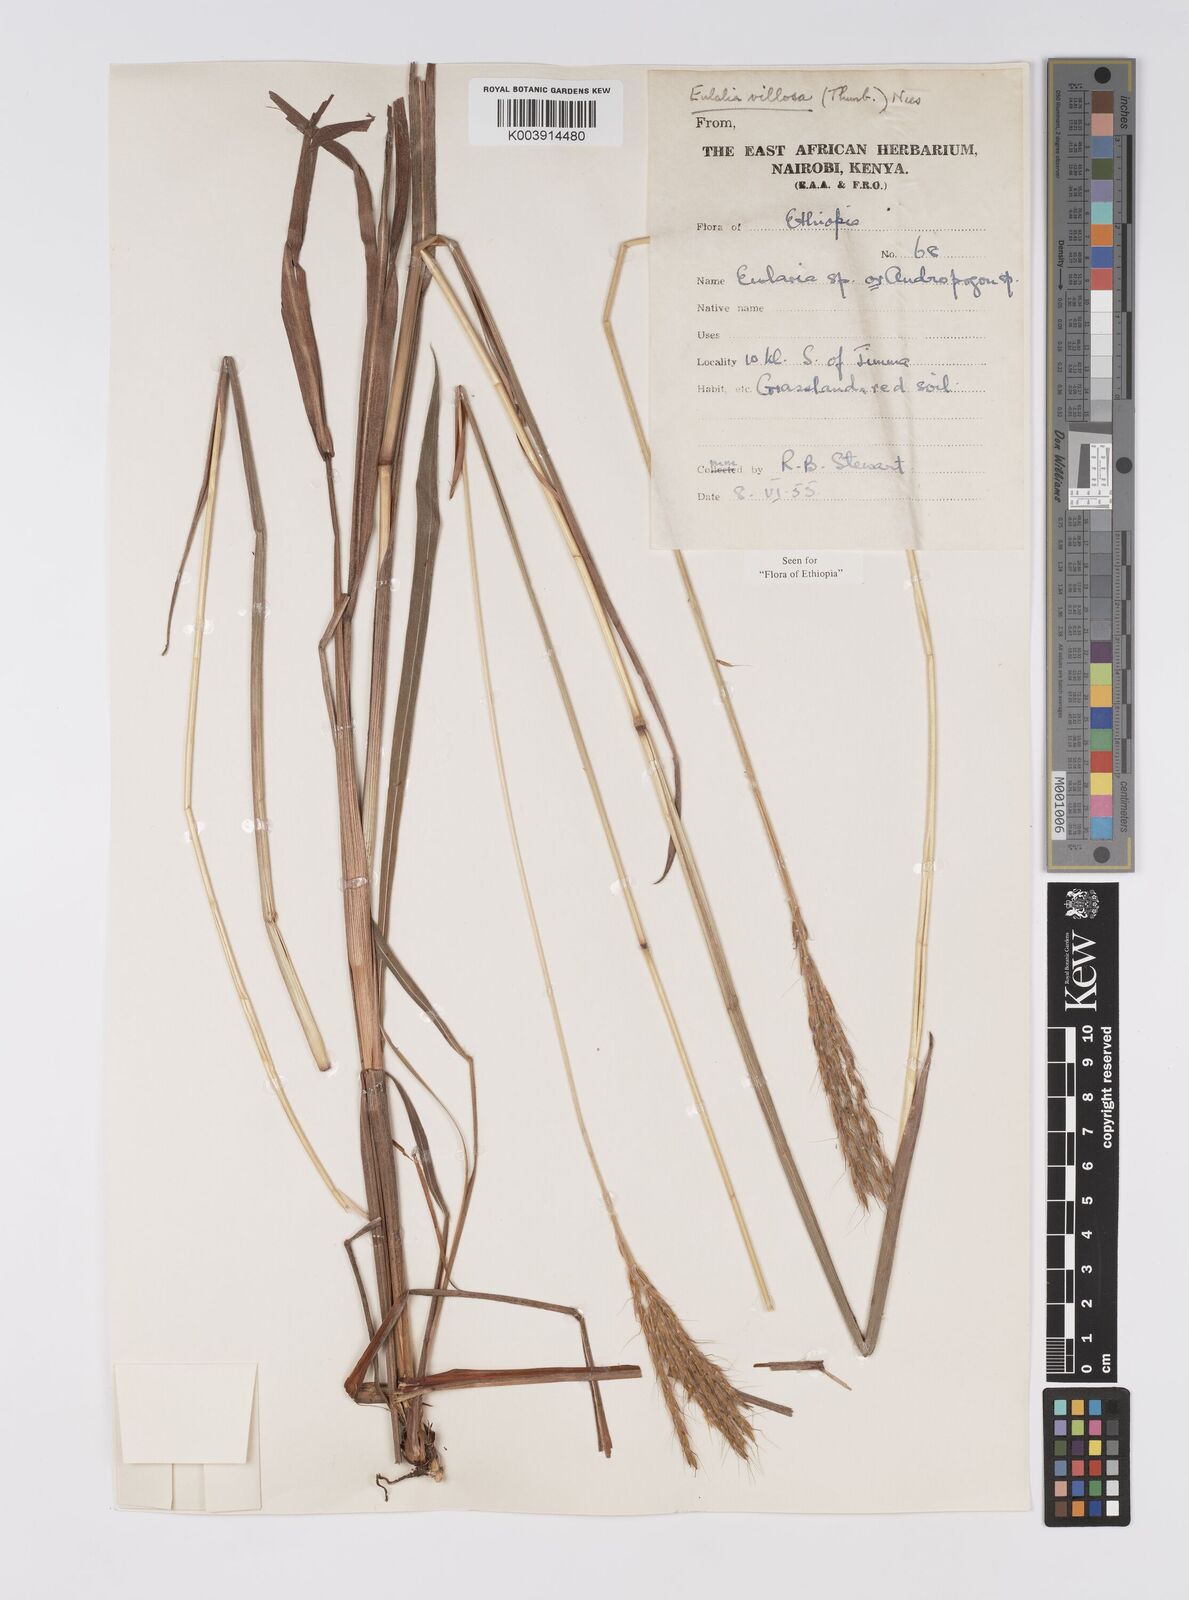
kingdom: Plantae
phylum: Tracheophyta
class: Liliopsida
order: Poales
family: Poaceae
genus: Eulalia
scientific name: Eulalia villosa
